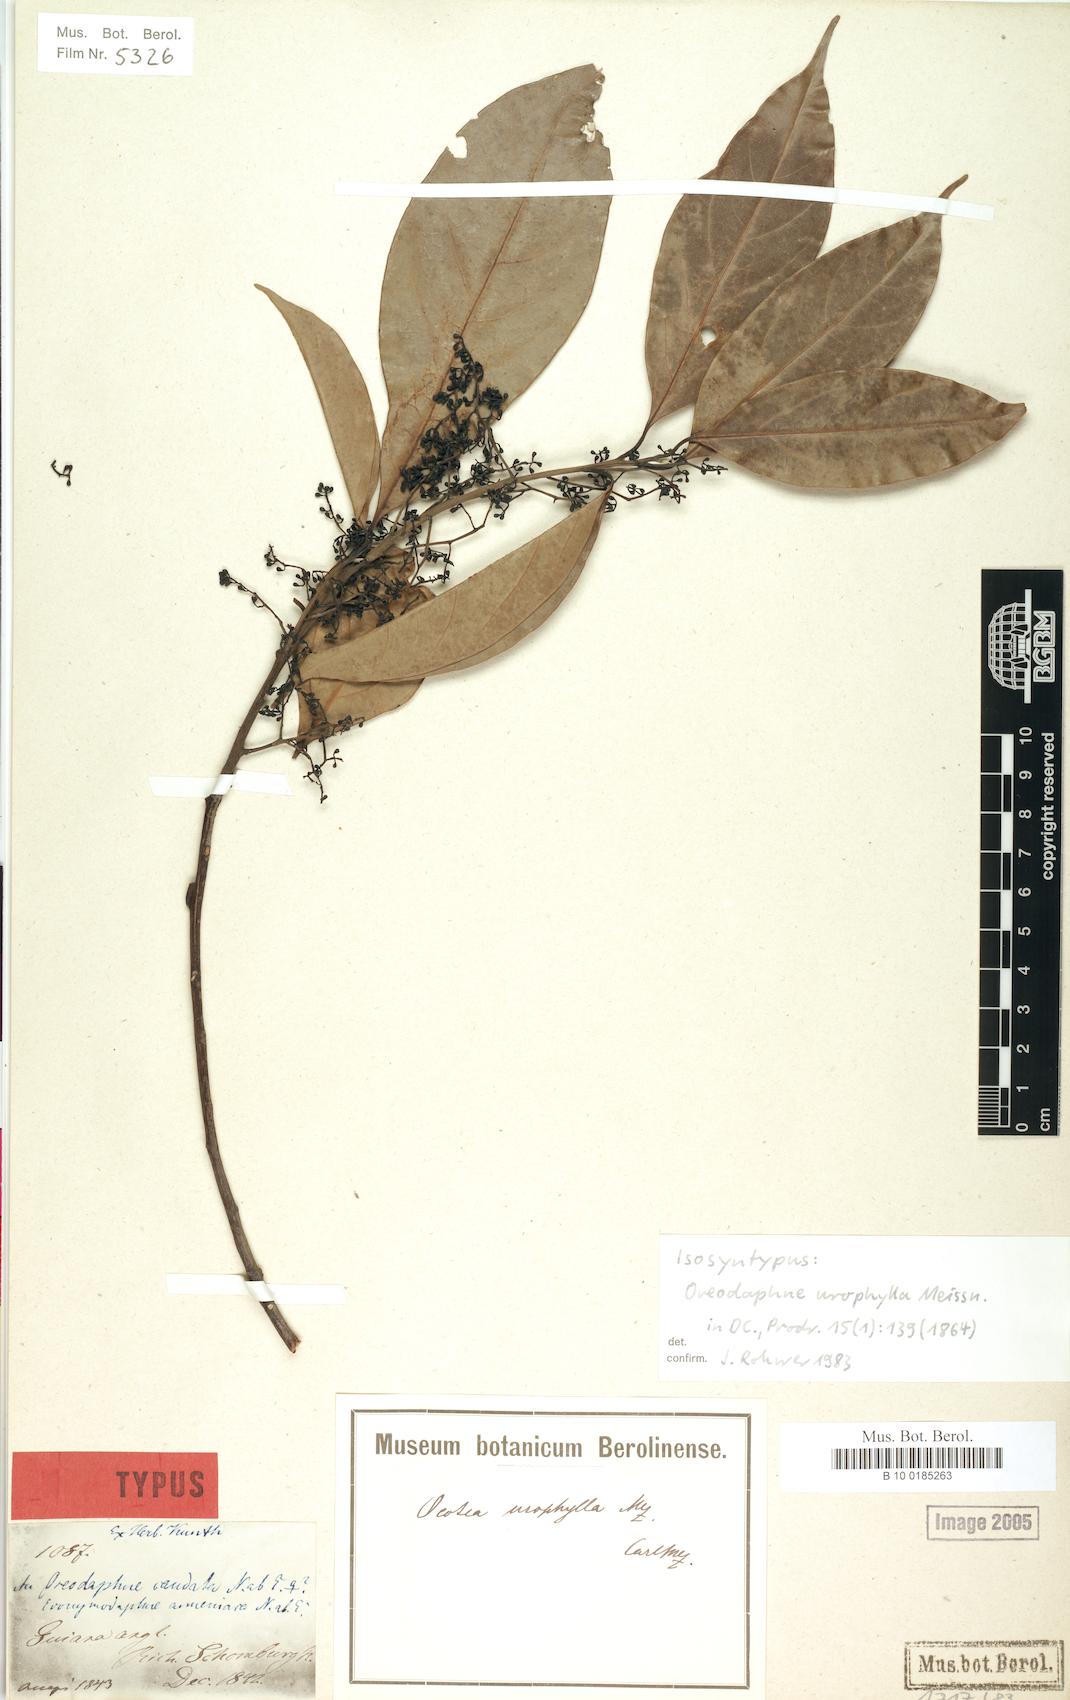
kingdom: Plantae
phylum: Tracheophyta
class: Magnoliopsida
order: Laurales
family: Lauraceae
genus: Ocotea
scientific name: Ocotea leptobotra
